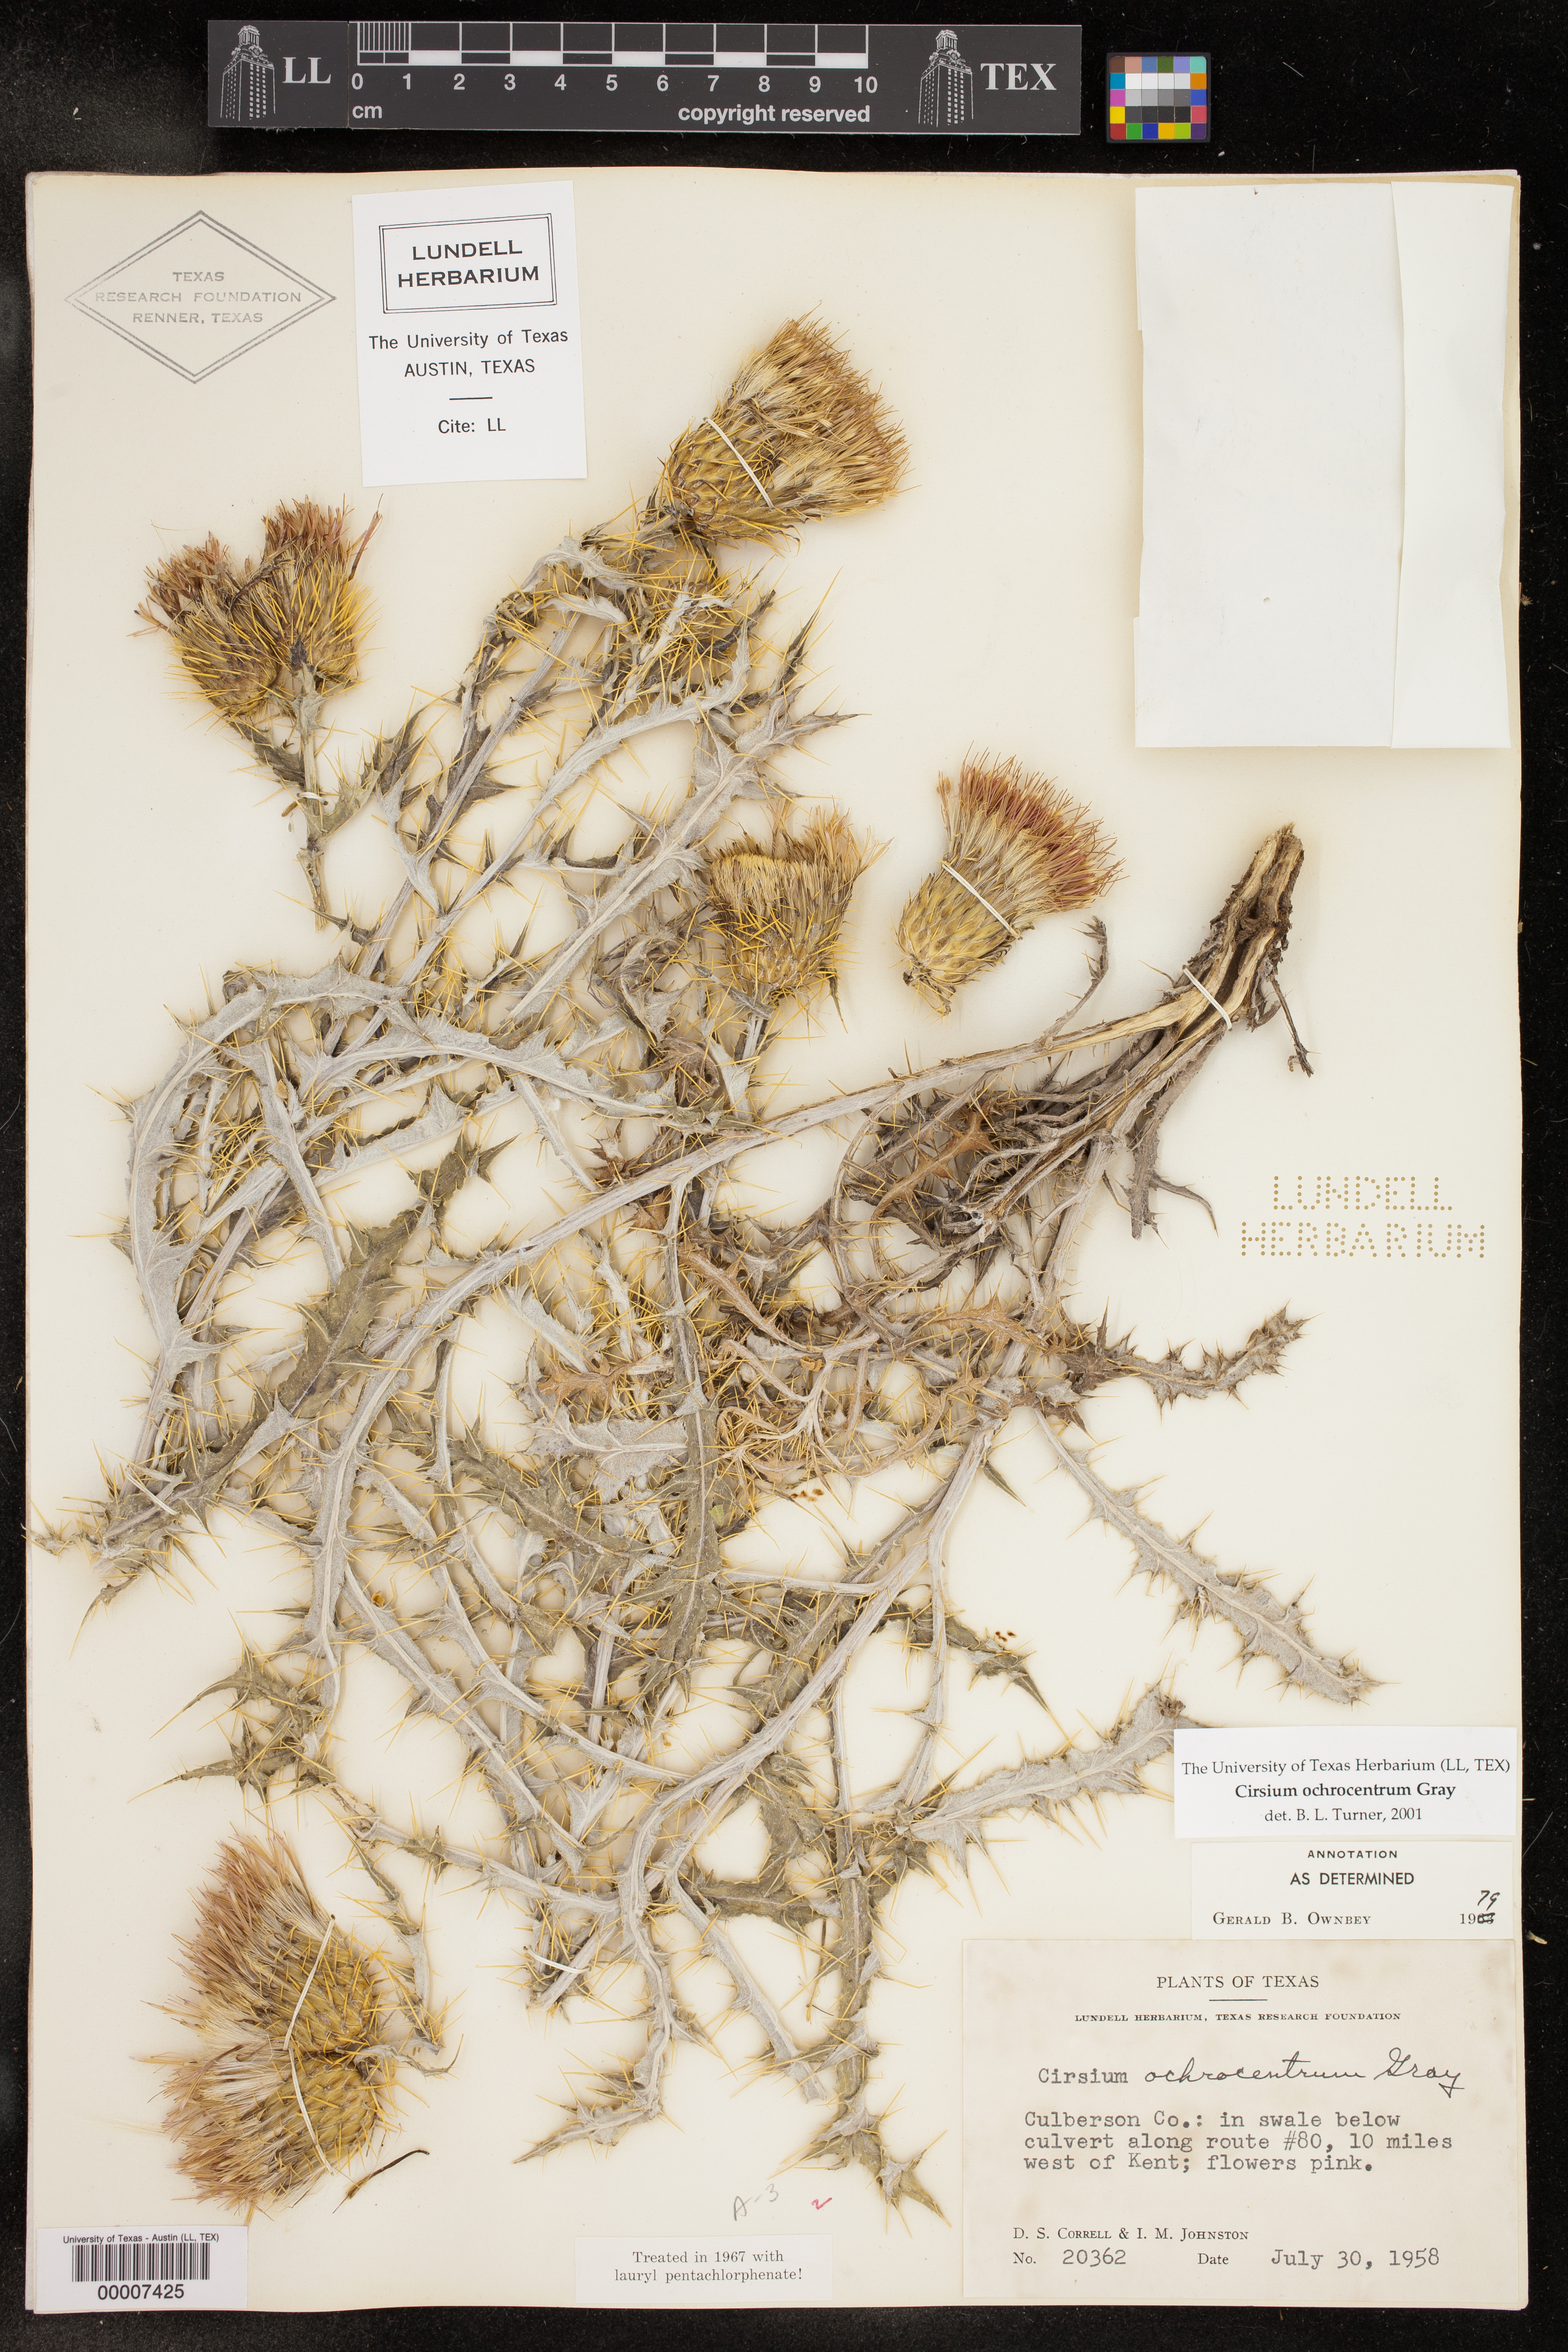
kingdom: Plantae
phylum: Tracheophyta
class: Magnoliopsida
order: Asterales
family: Asteraceae
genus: Cirsium
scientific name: Cirsium ochrocentrum
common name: Yellow-spine thistle
